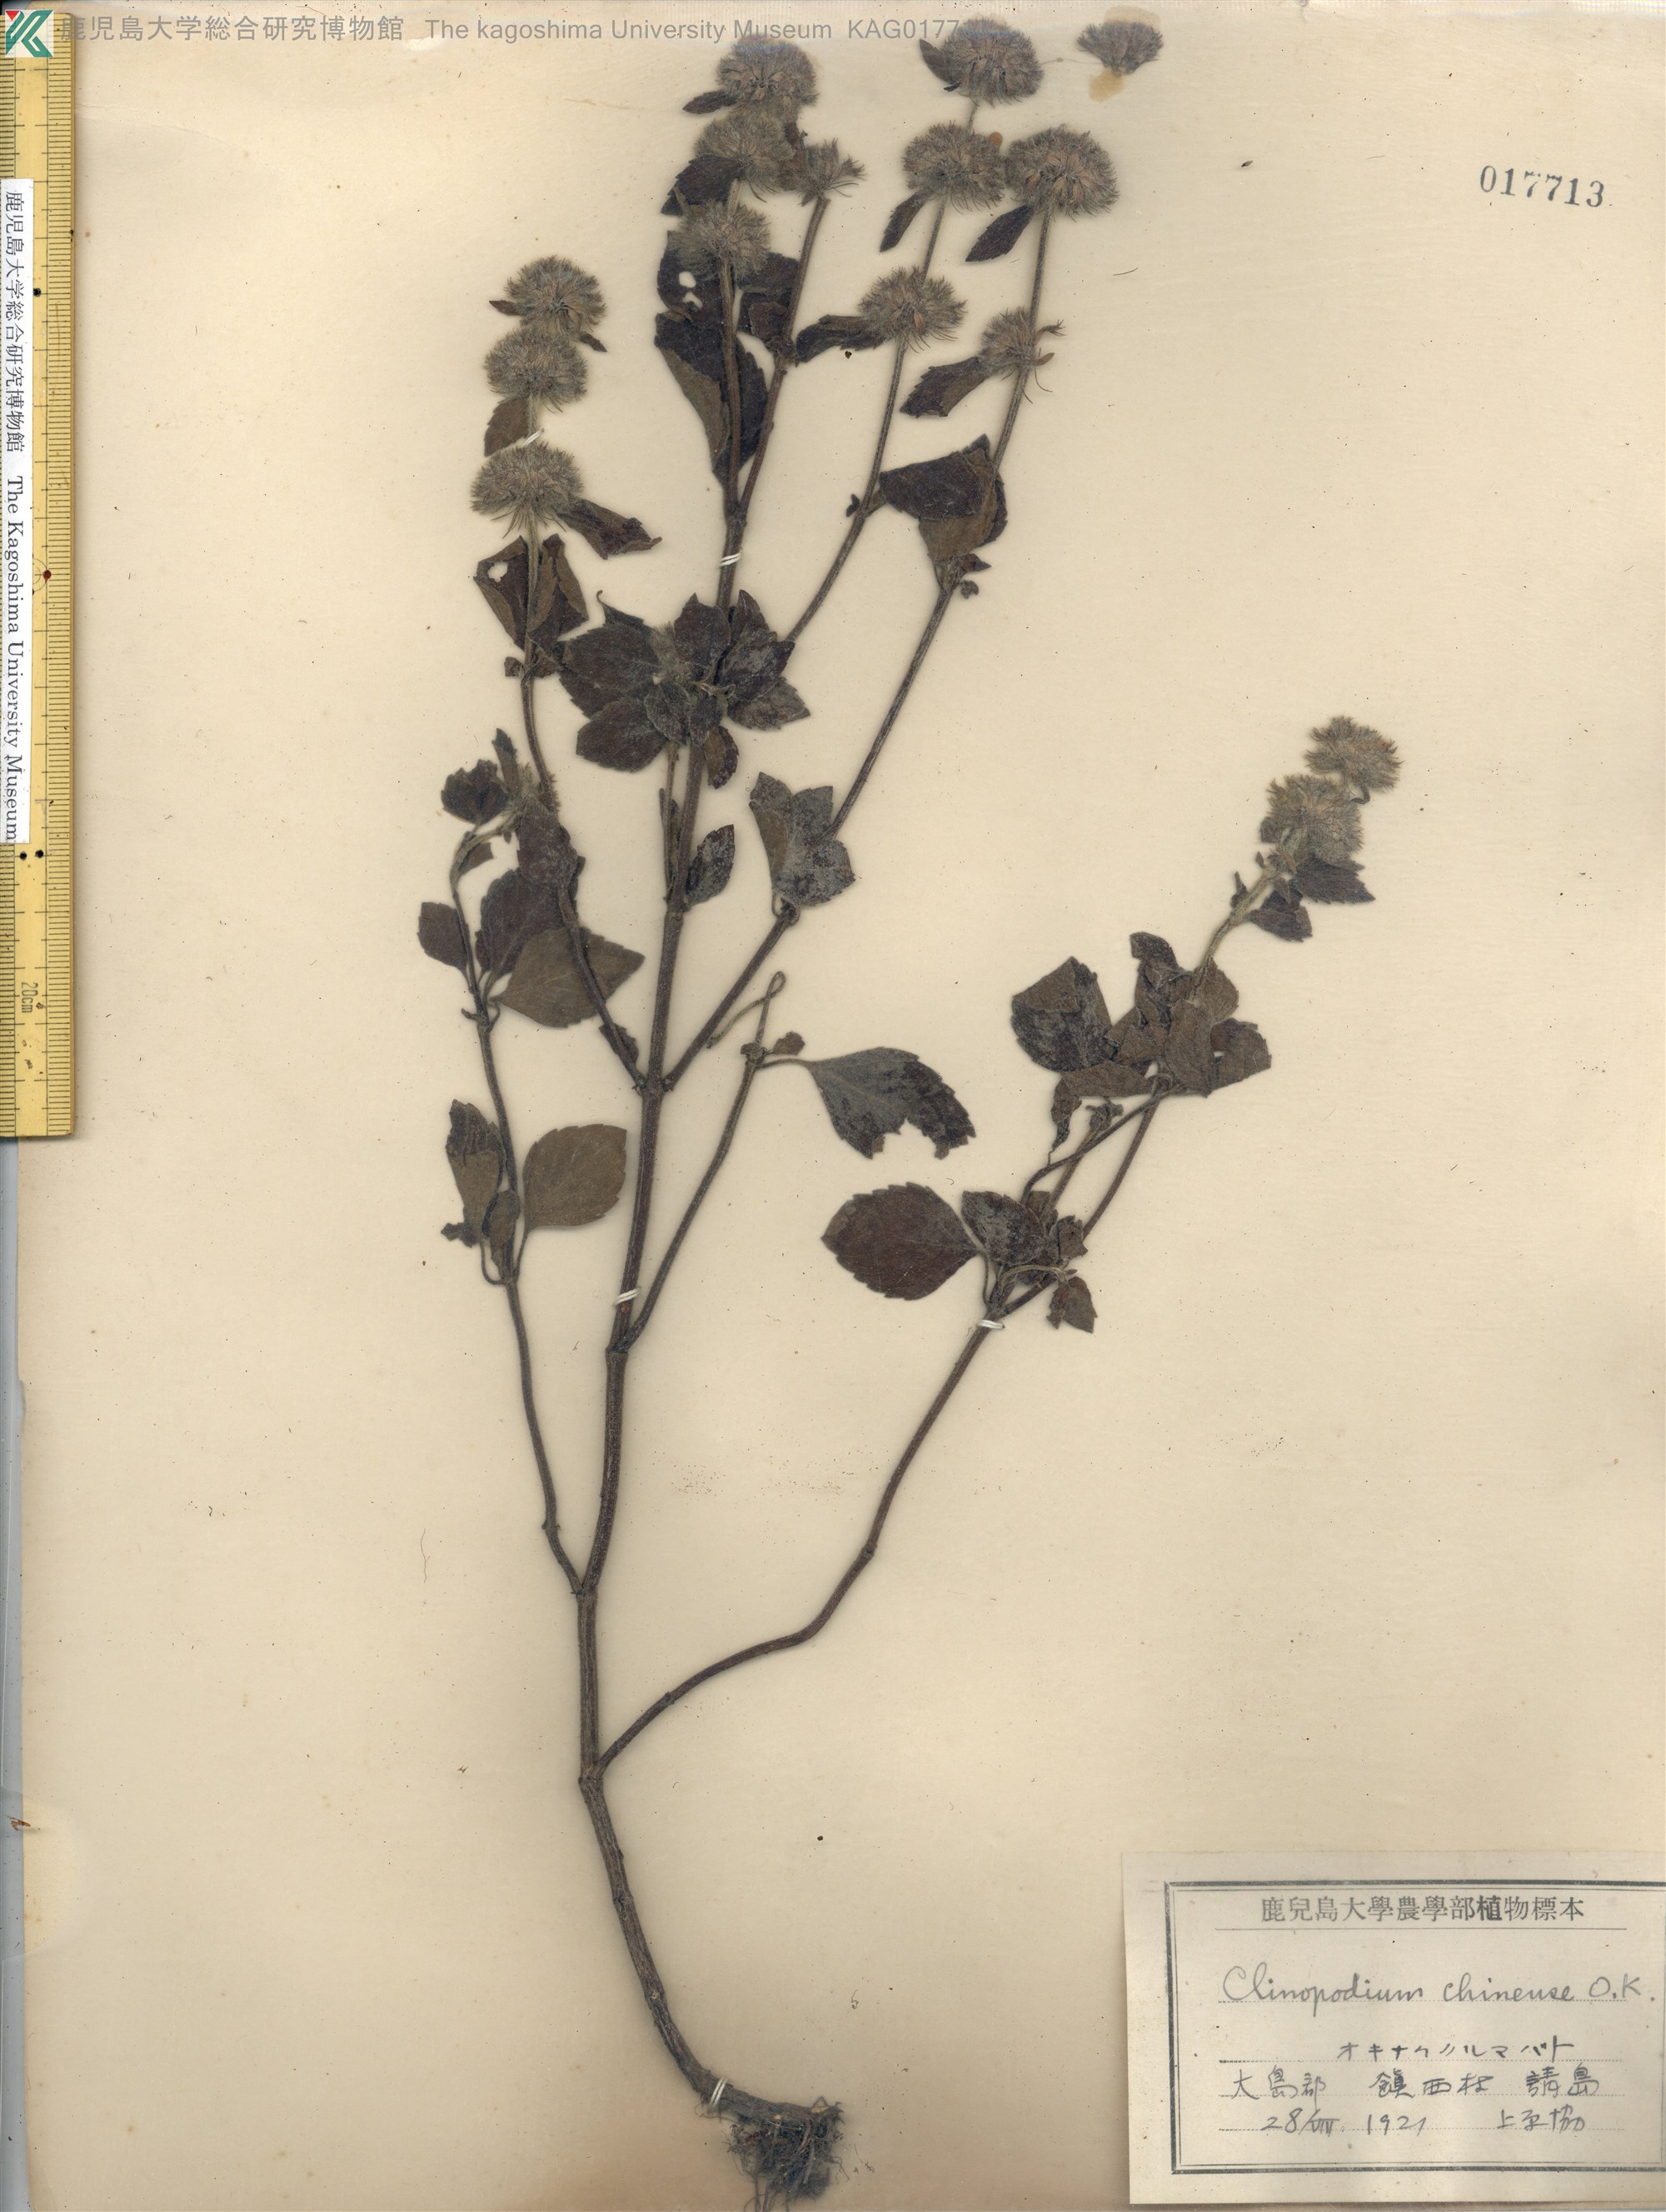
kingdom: Plantae
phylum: Tracheophyta
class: Magnoliopsida
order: Lamiales
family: Lamiaceae
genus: Clinopodium
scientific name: Clinopodium chinense
